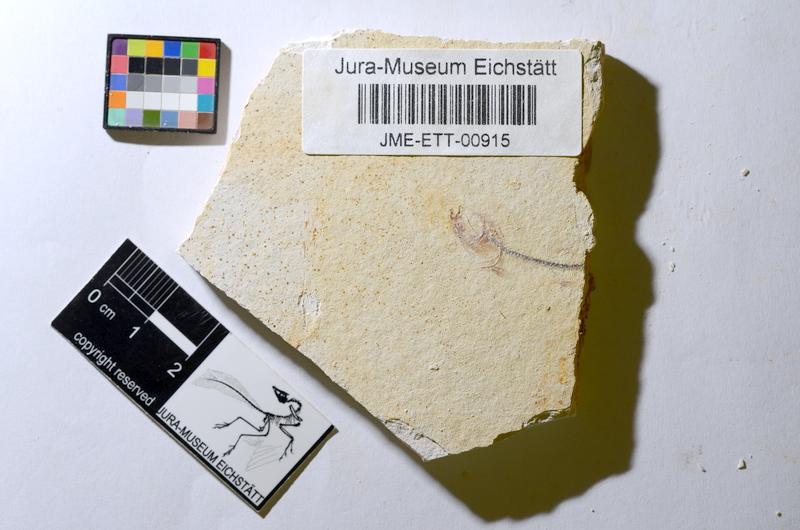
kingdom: Animalia
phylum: Chordata
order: Salmoniformes
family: Orthogonikleithridae
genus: Orthogonikleithrus
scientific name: Orthogonikleithrus hoelli
